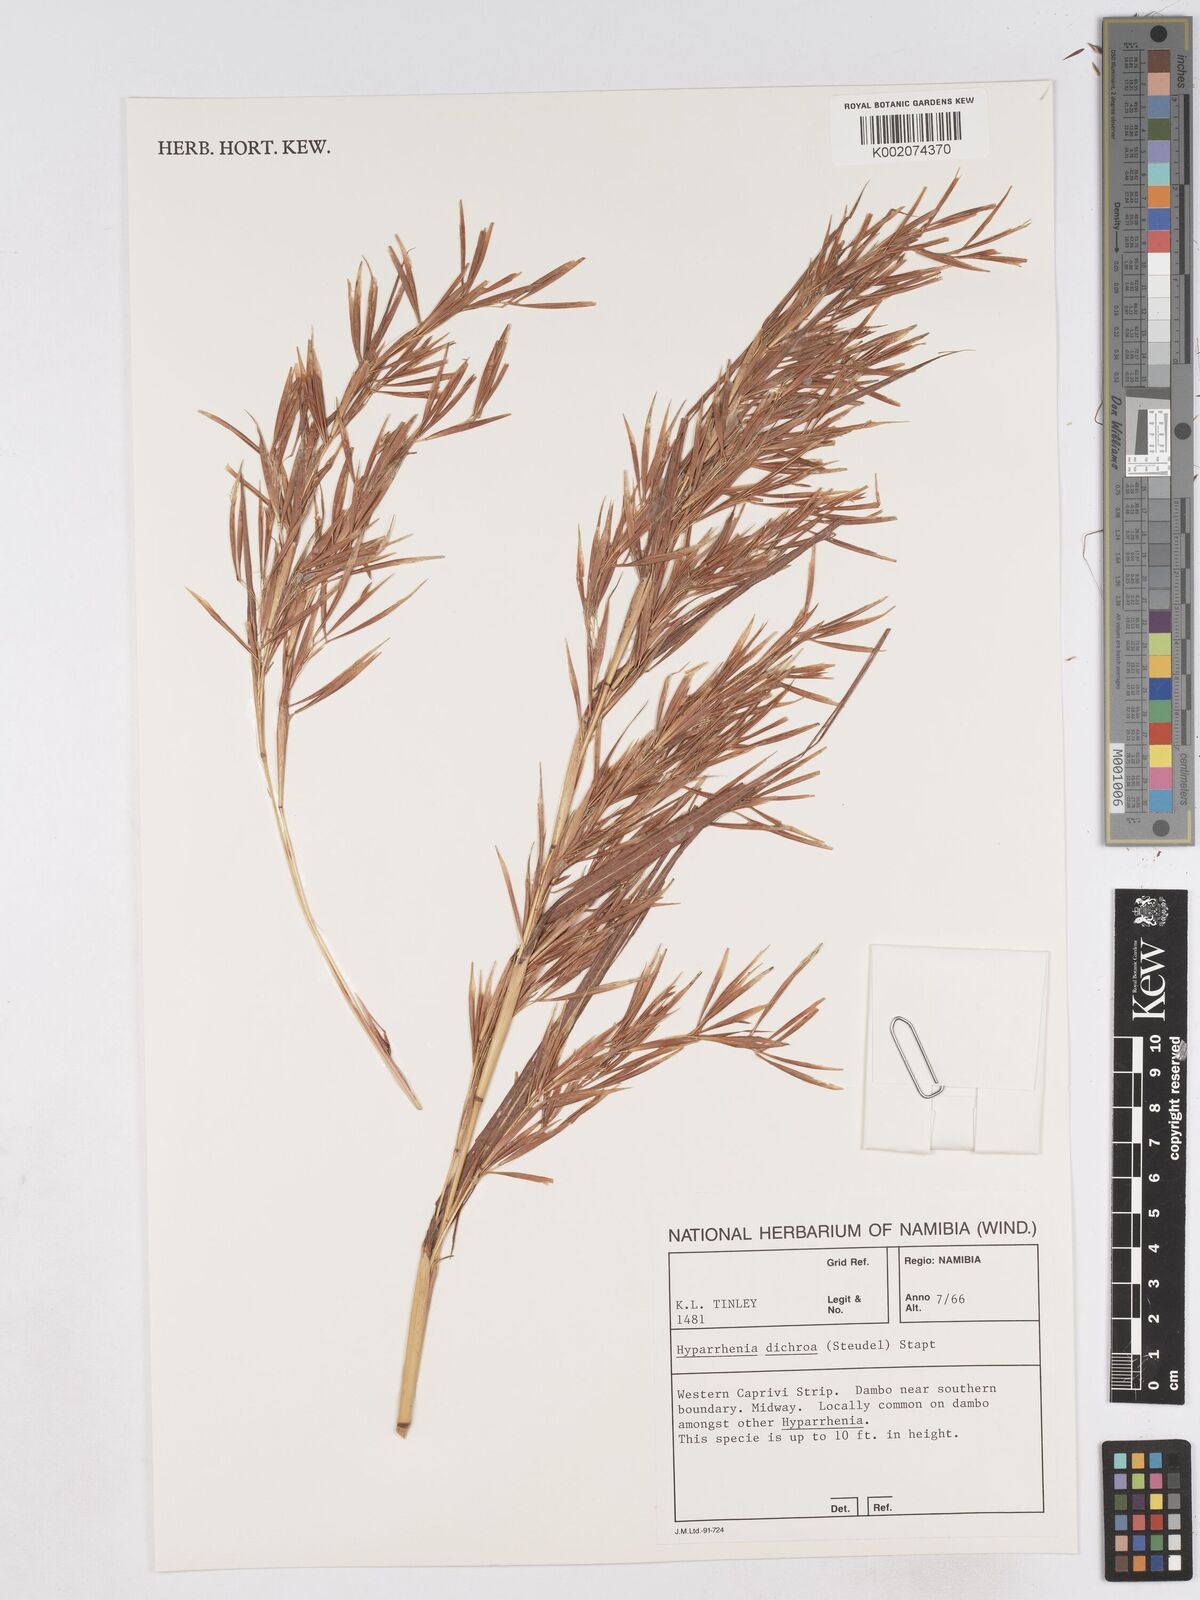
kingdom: Plantae
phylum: Tracheophyta
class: Liliopsida
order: Poales
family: Poaceae
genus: Hyparrhenia
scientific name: Hyparrhenia dichroa
